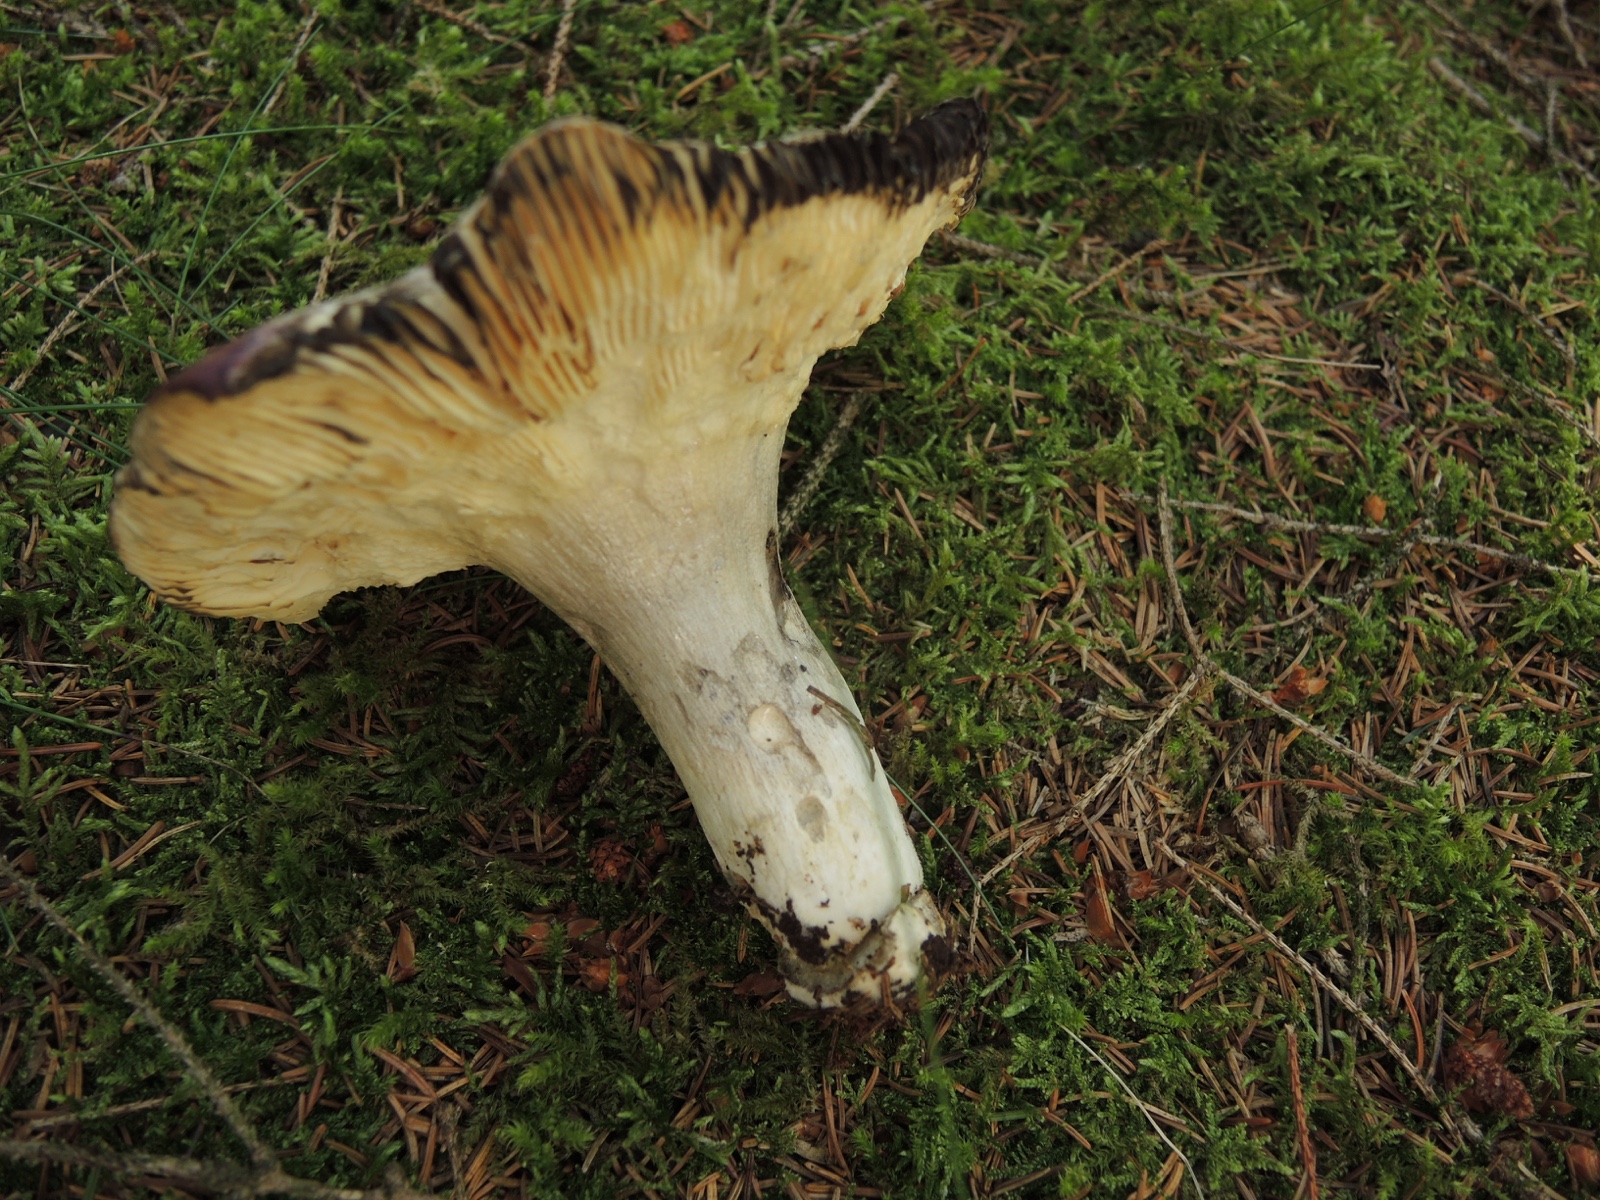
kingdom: Fungi
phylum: Basidiomycota
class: Agaricomycetes
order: Russulales
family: Russulaceae
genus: Russula
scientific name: Russula vinosa
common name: vinrød skørhat
